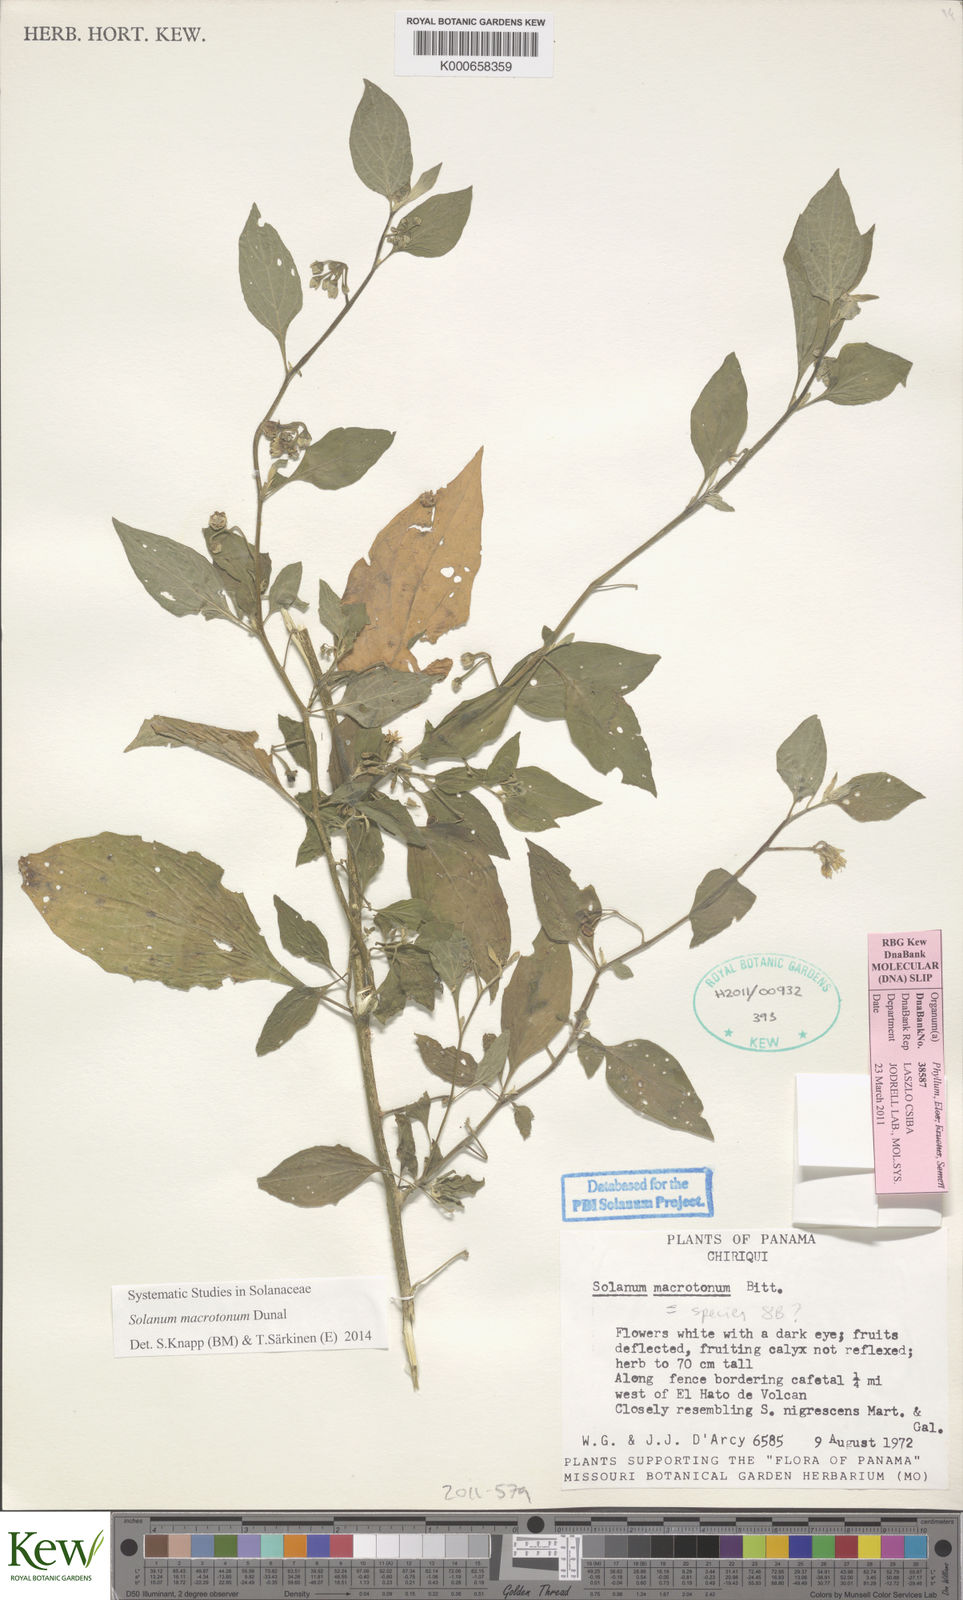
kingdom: Plantae
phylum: Tracheophyta
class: Magnoliopsida
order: Solanales
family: Solanaceae
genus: Solanum
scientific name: Solanum macrotonum
